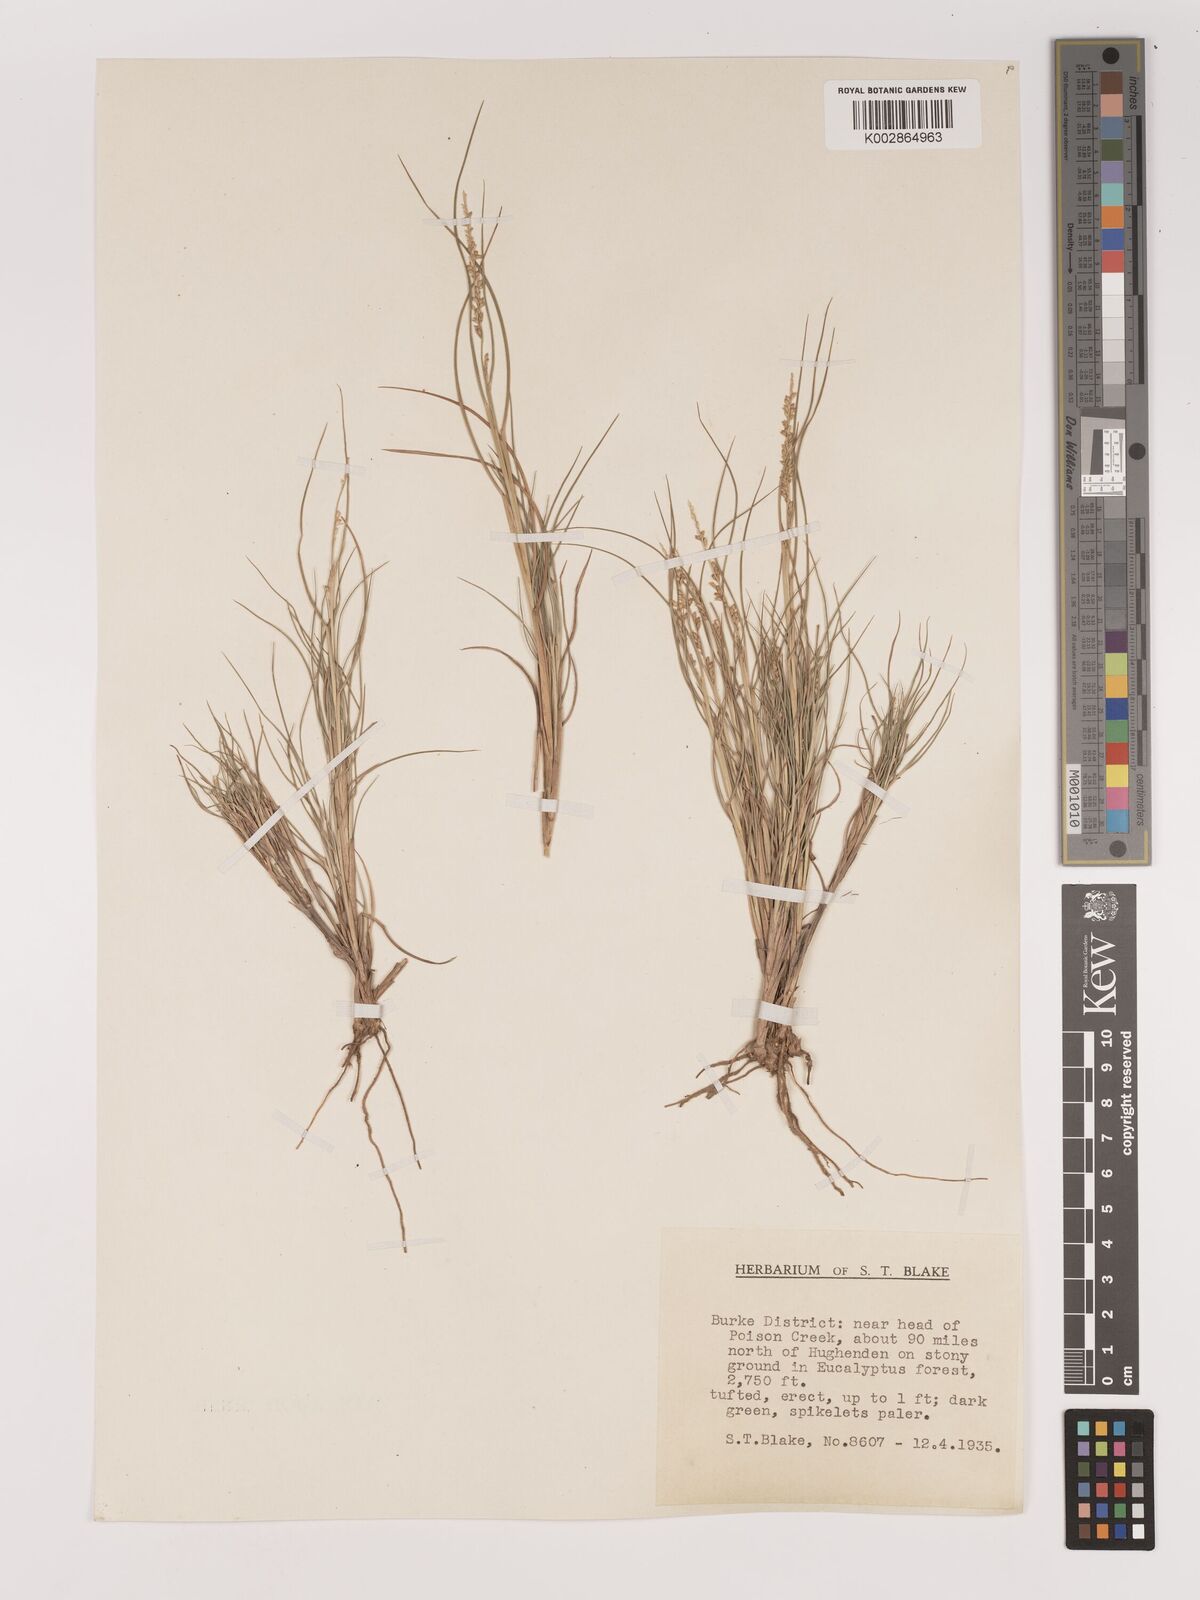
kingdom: Plantae
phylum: Tracheophyta
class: Liliopsida
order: Poales
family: Poaceae
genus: Setaria
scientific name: Setaria
